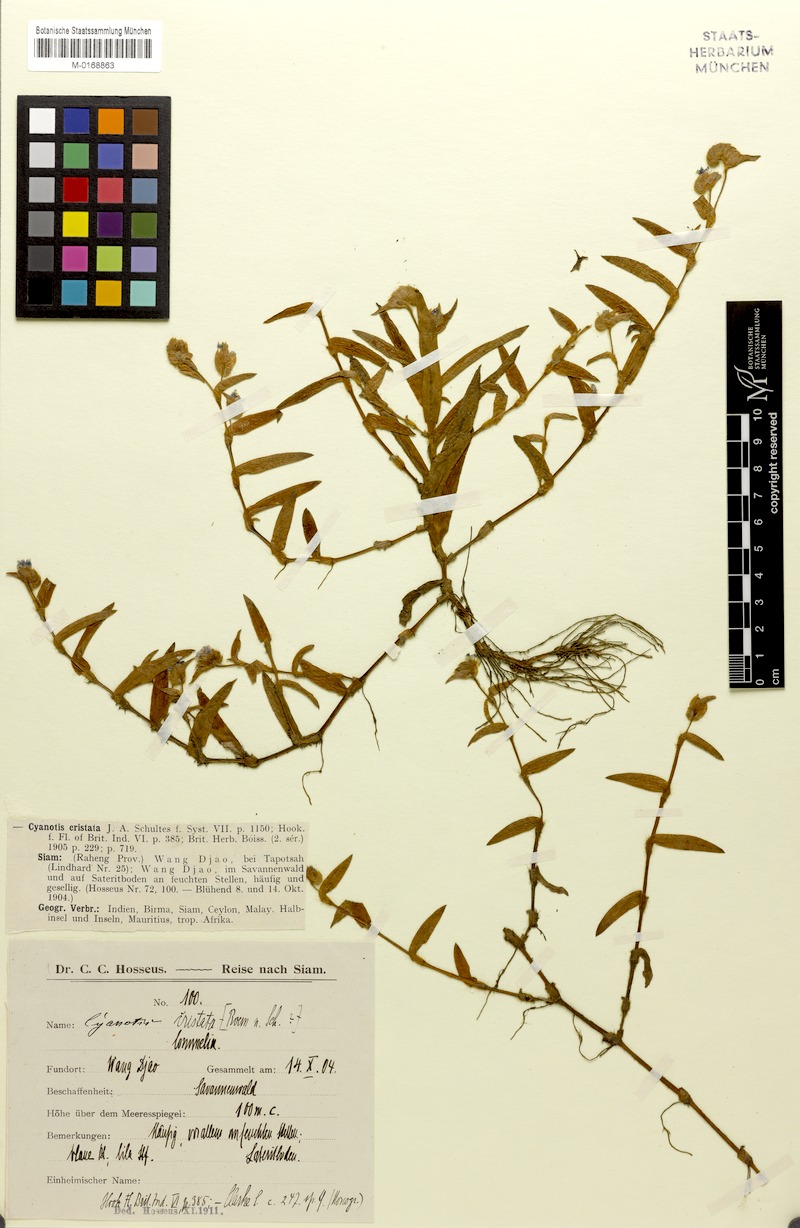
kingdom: Plantae
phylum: Tracheophyta
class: Liliopsida
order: Commelinales
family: Commelinaceae
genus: Cyanotis
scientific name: Cyanotis cristata
